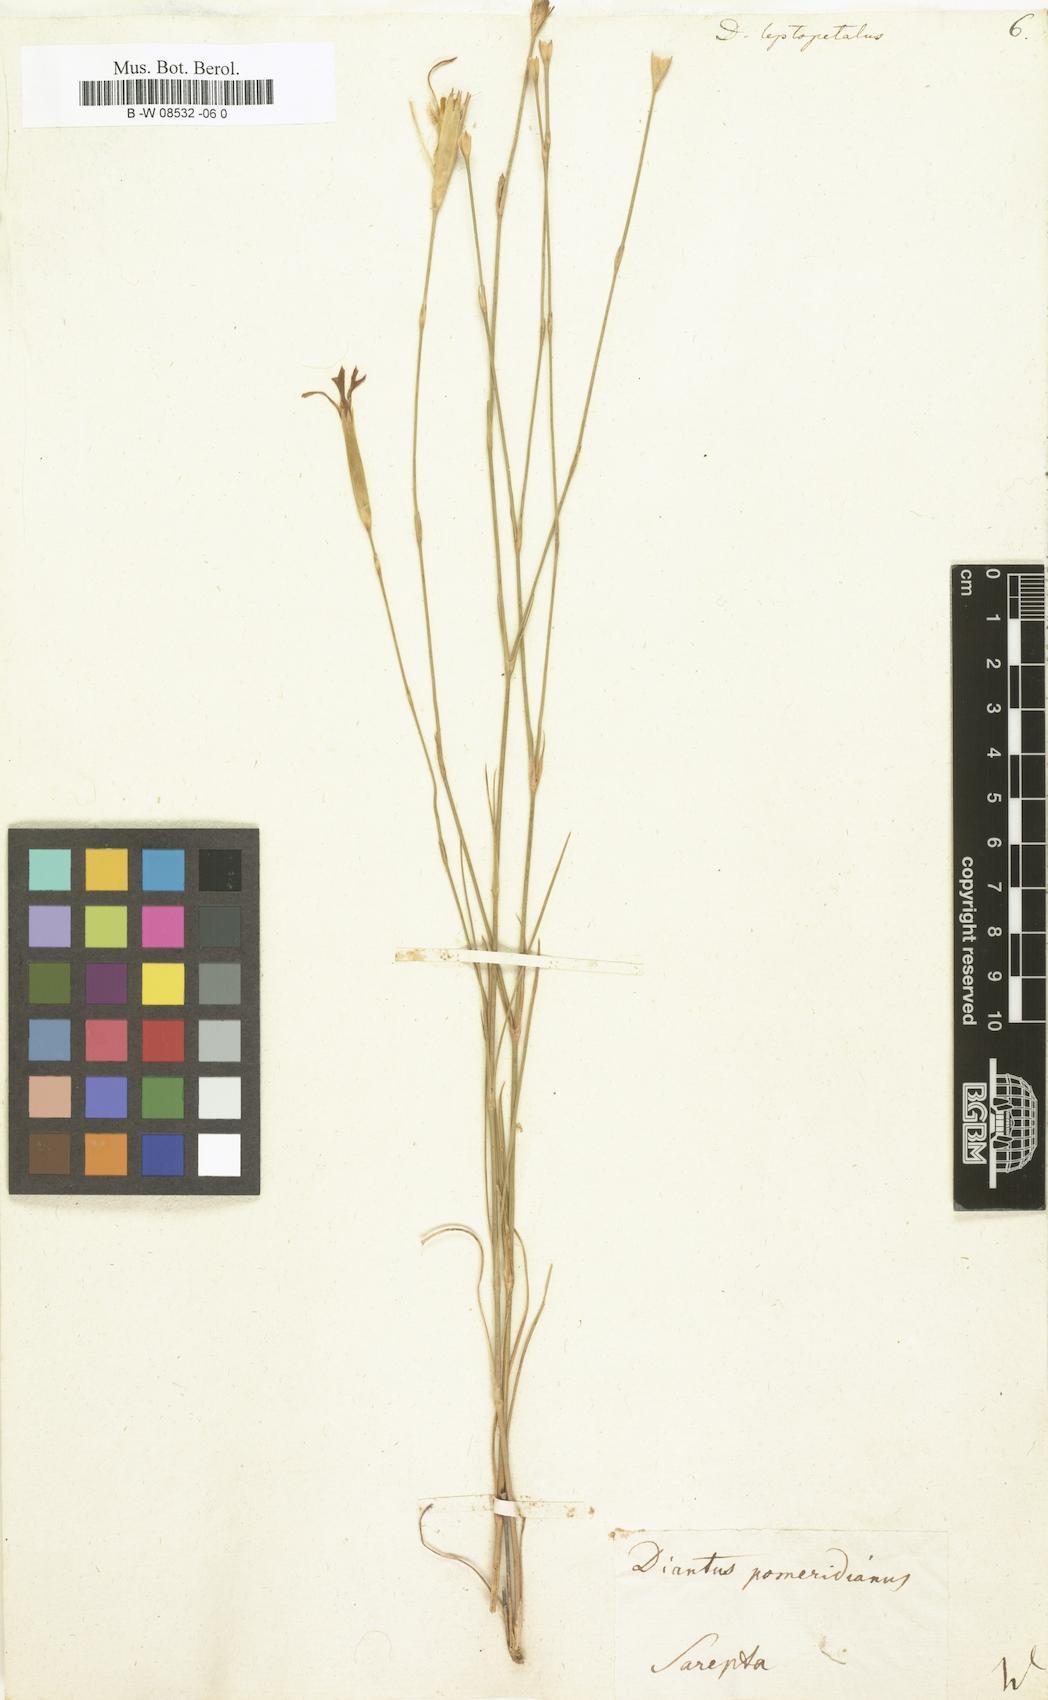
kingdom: Plantae
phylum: Tracheophyta
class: Magnoliopsida
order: Caryophyllales
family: Caryophyllaceae
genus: Dianthus
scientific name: Dianthus leptopetalus
